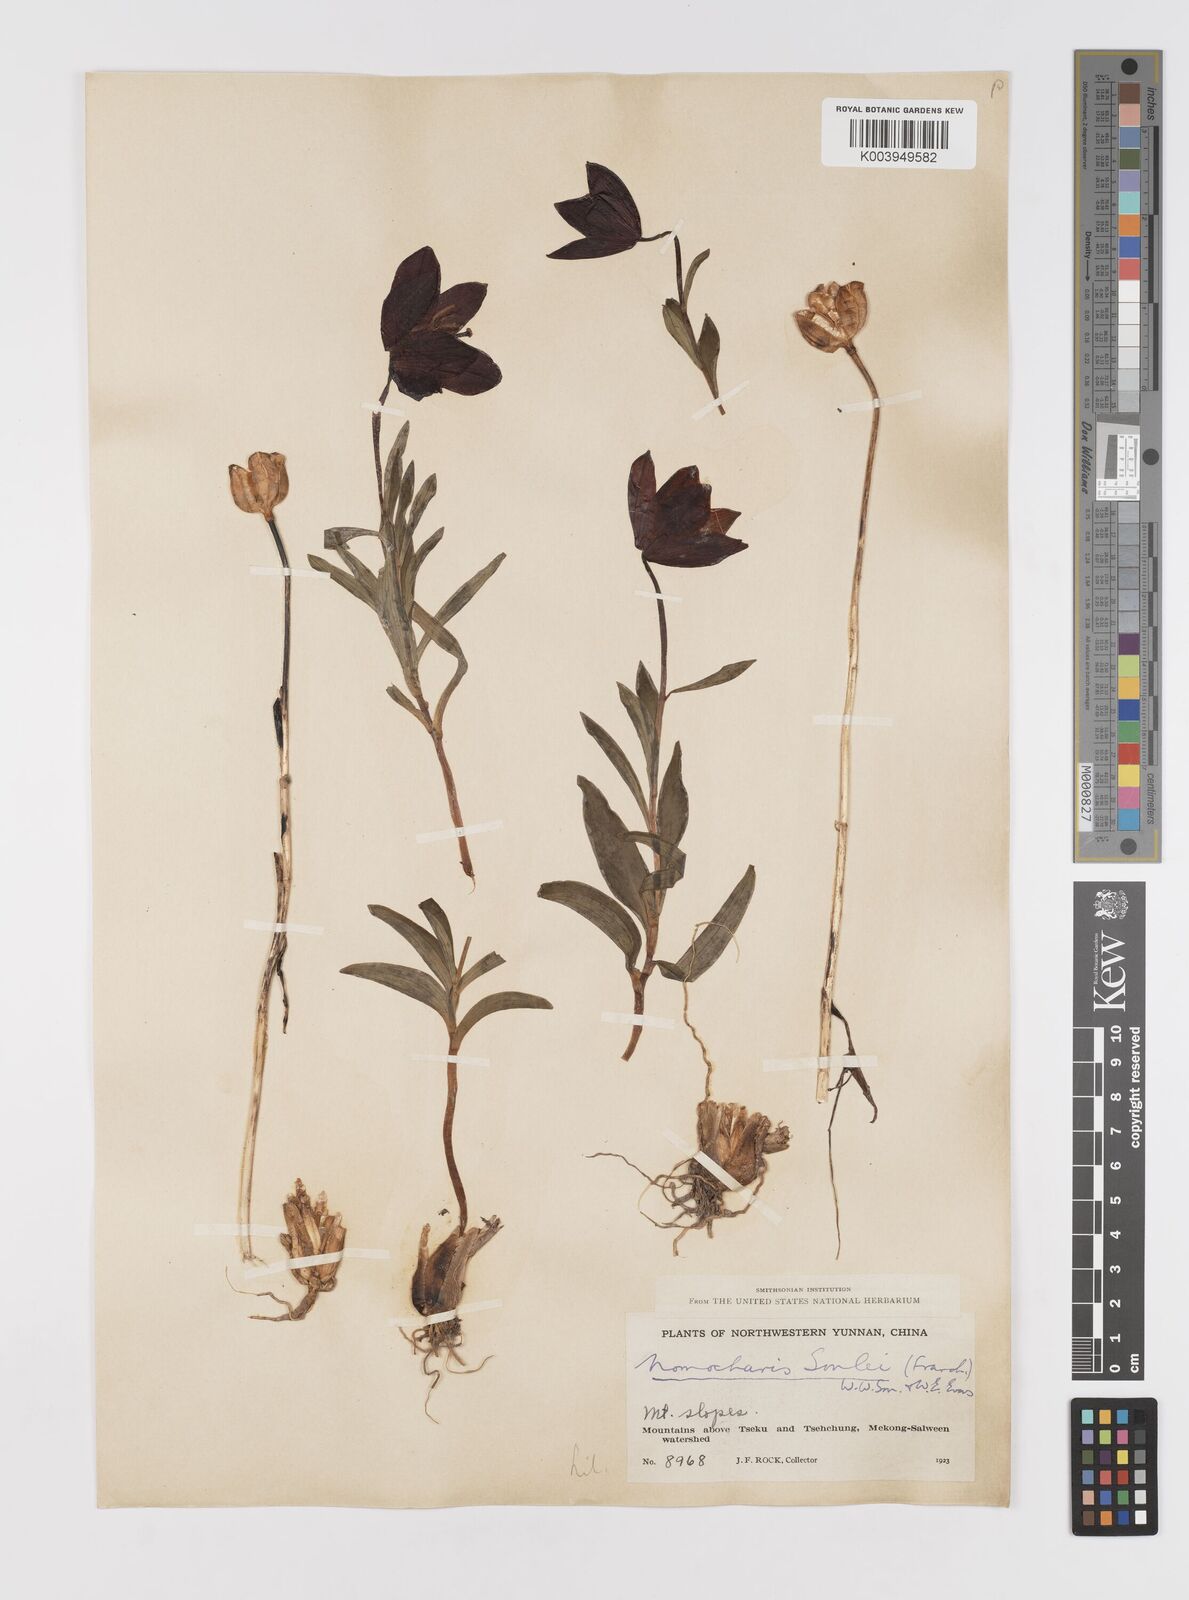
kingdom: Plantae
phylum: Tracheophyta
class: Liliopsida
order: Liliales
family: Liliaceae
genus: Lilium
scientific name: Lilium souliei
